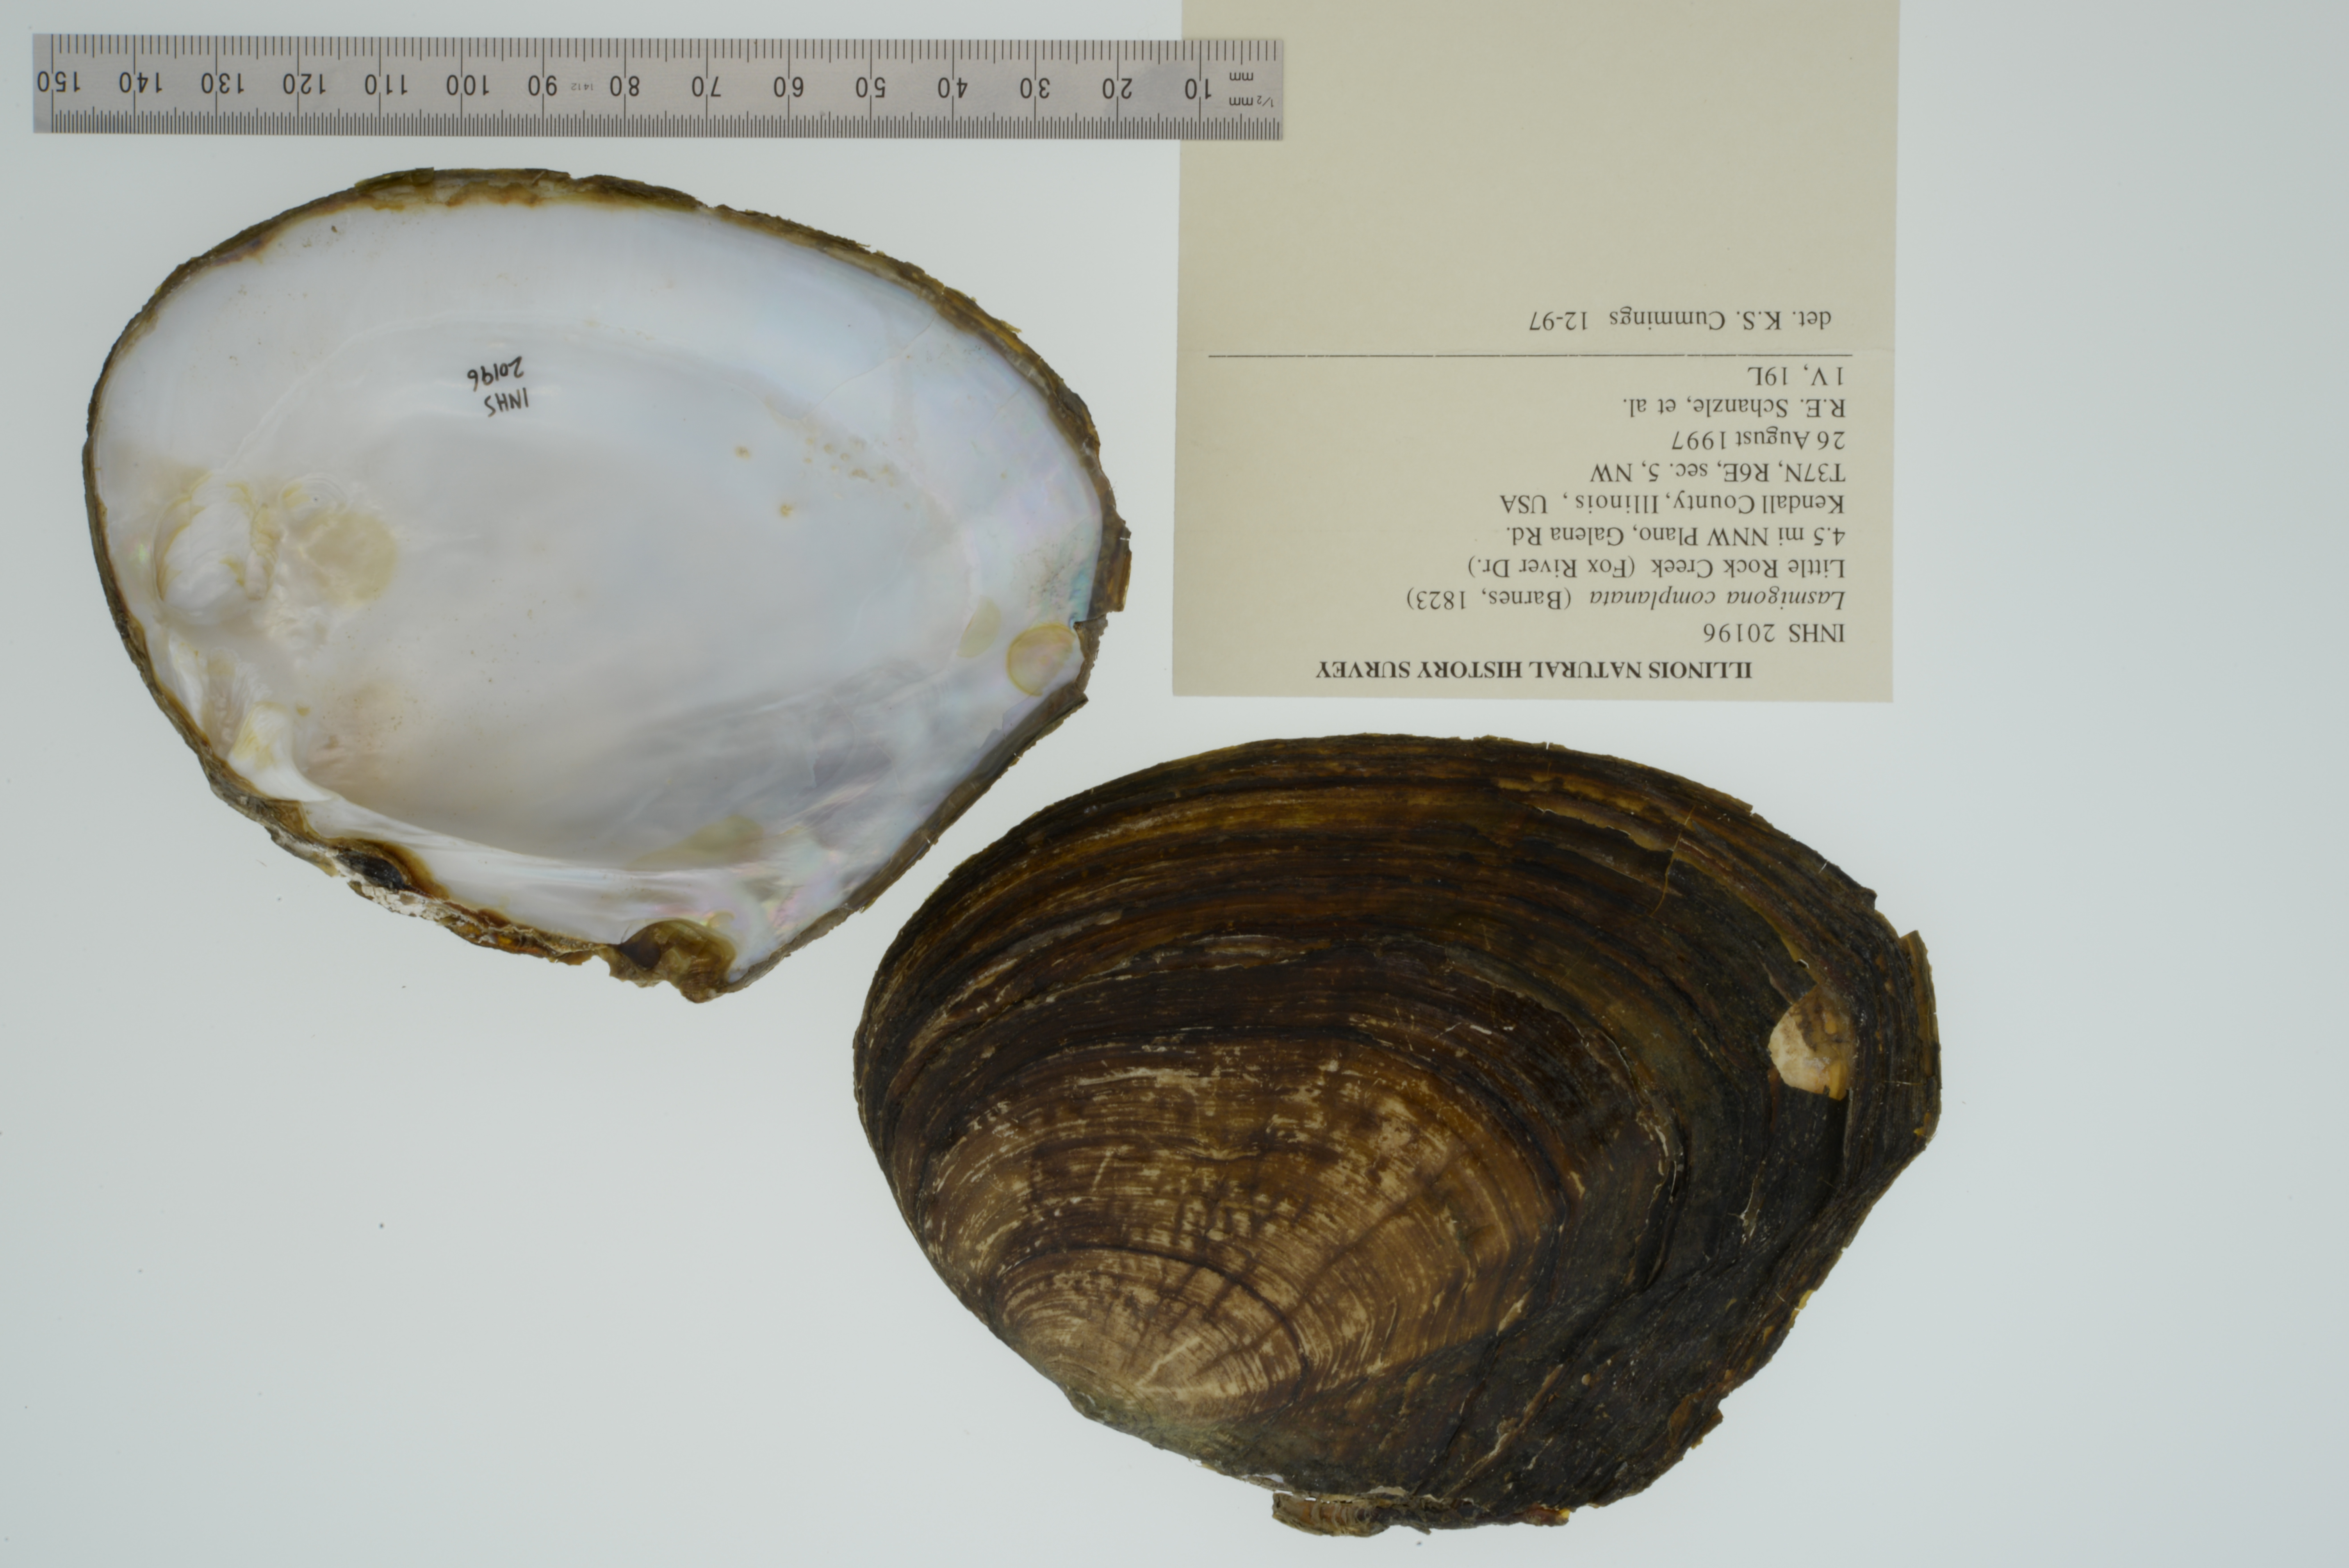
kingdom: Animalia
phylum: Mollusca
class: Bivalvia
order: Unionida
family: Unionidae
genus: Lasmigona
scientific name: Lasmigona complanata
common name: White heelsplitter
